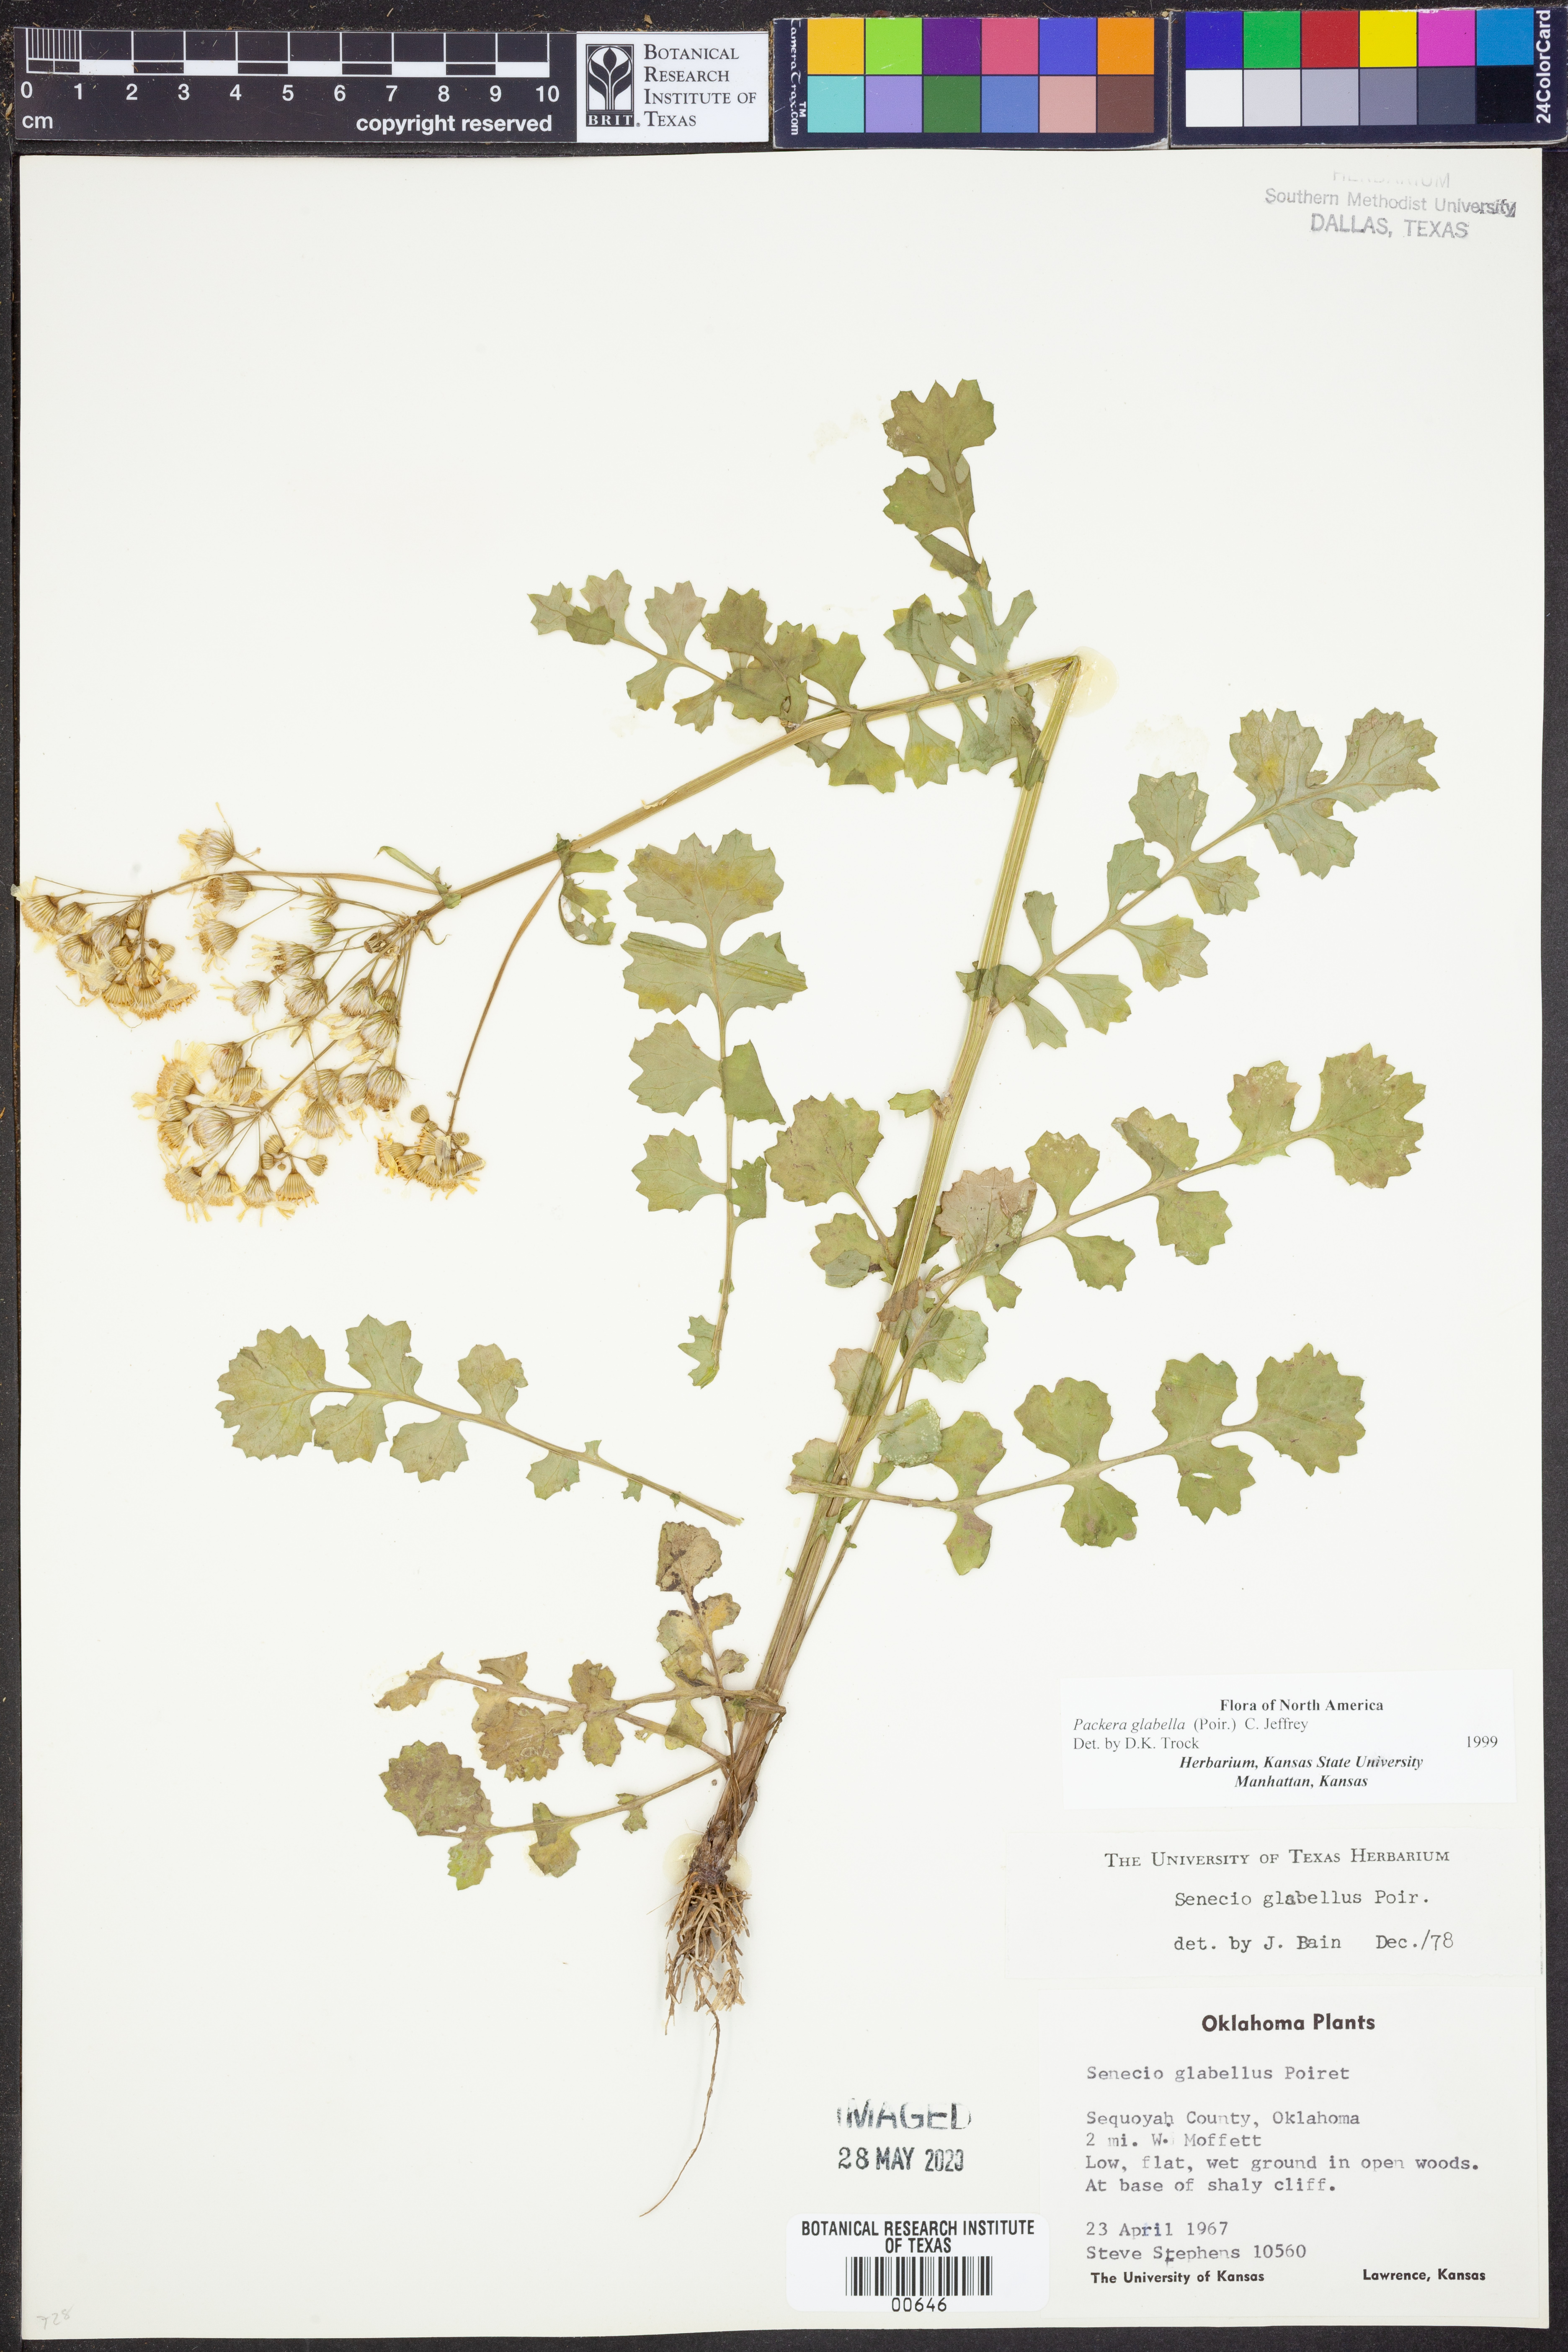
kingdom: Plantae
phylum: Tracheophyta
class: Magnoliopsida
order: Asterales
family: Asteraceae
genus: Packera
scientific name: Packera glabella
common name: Butterweed
